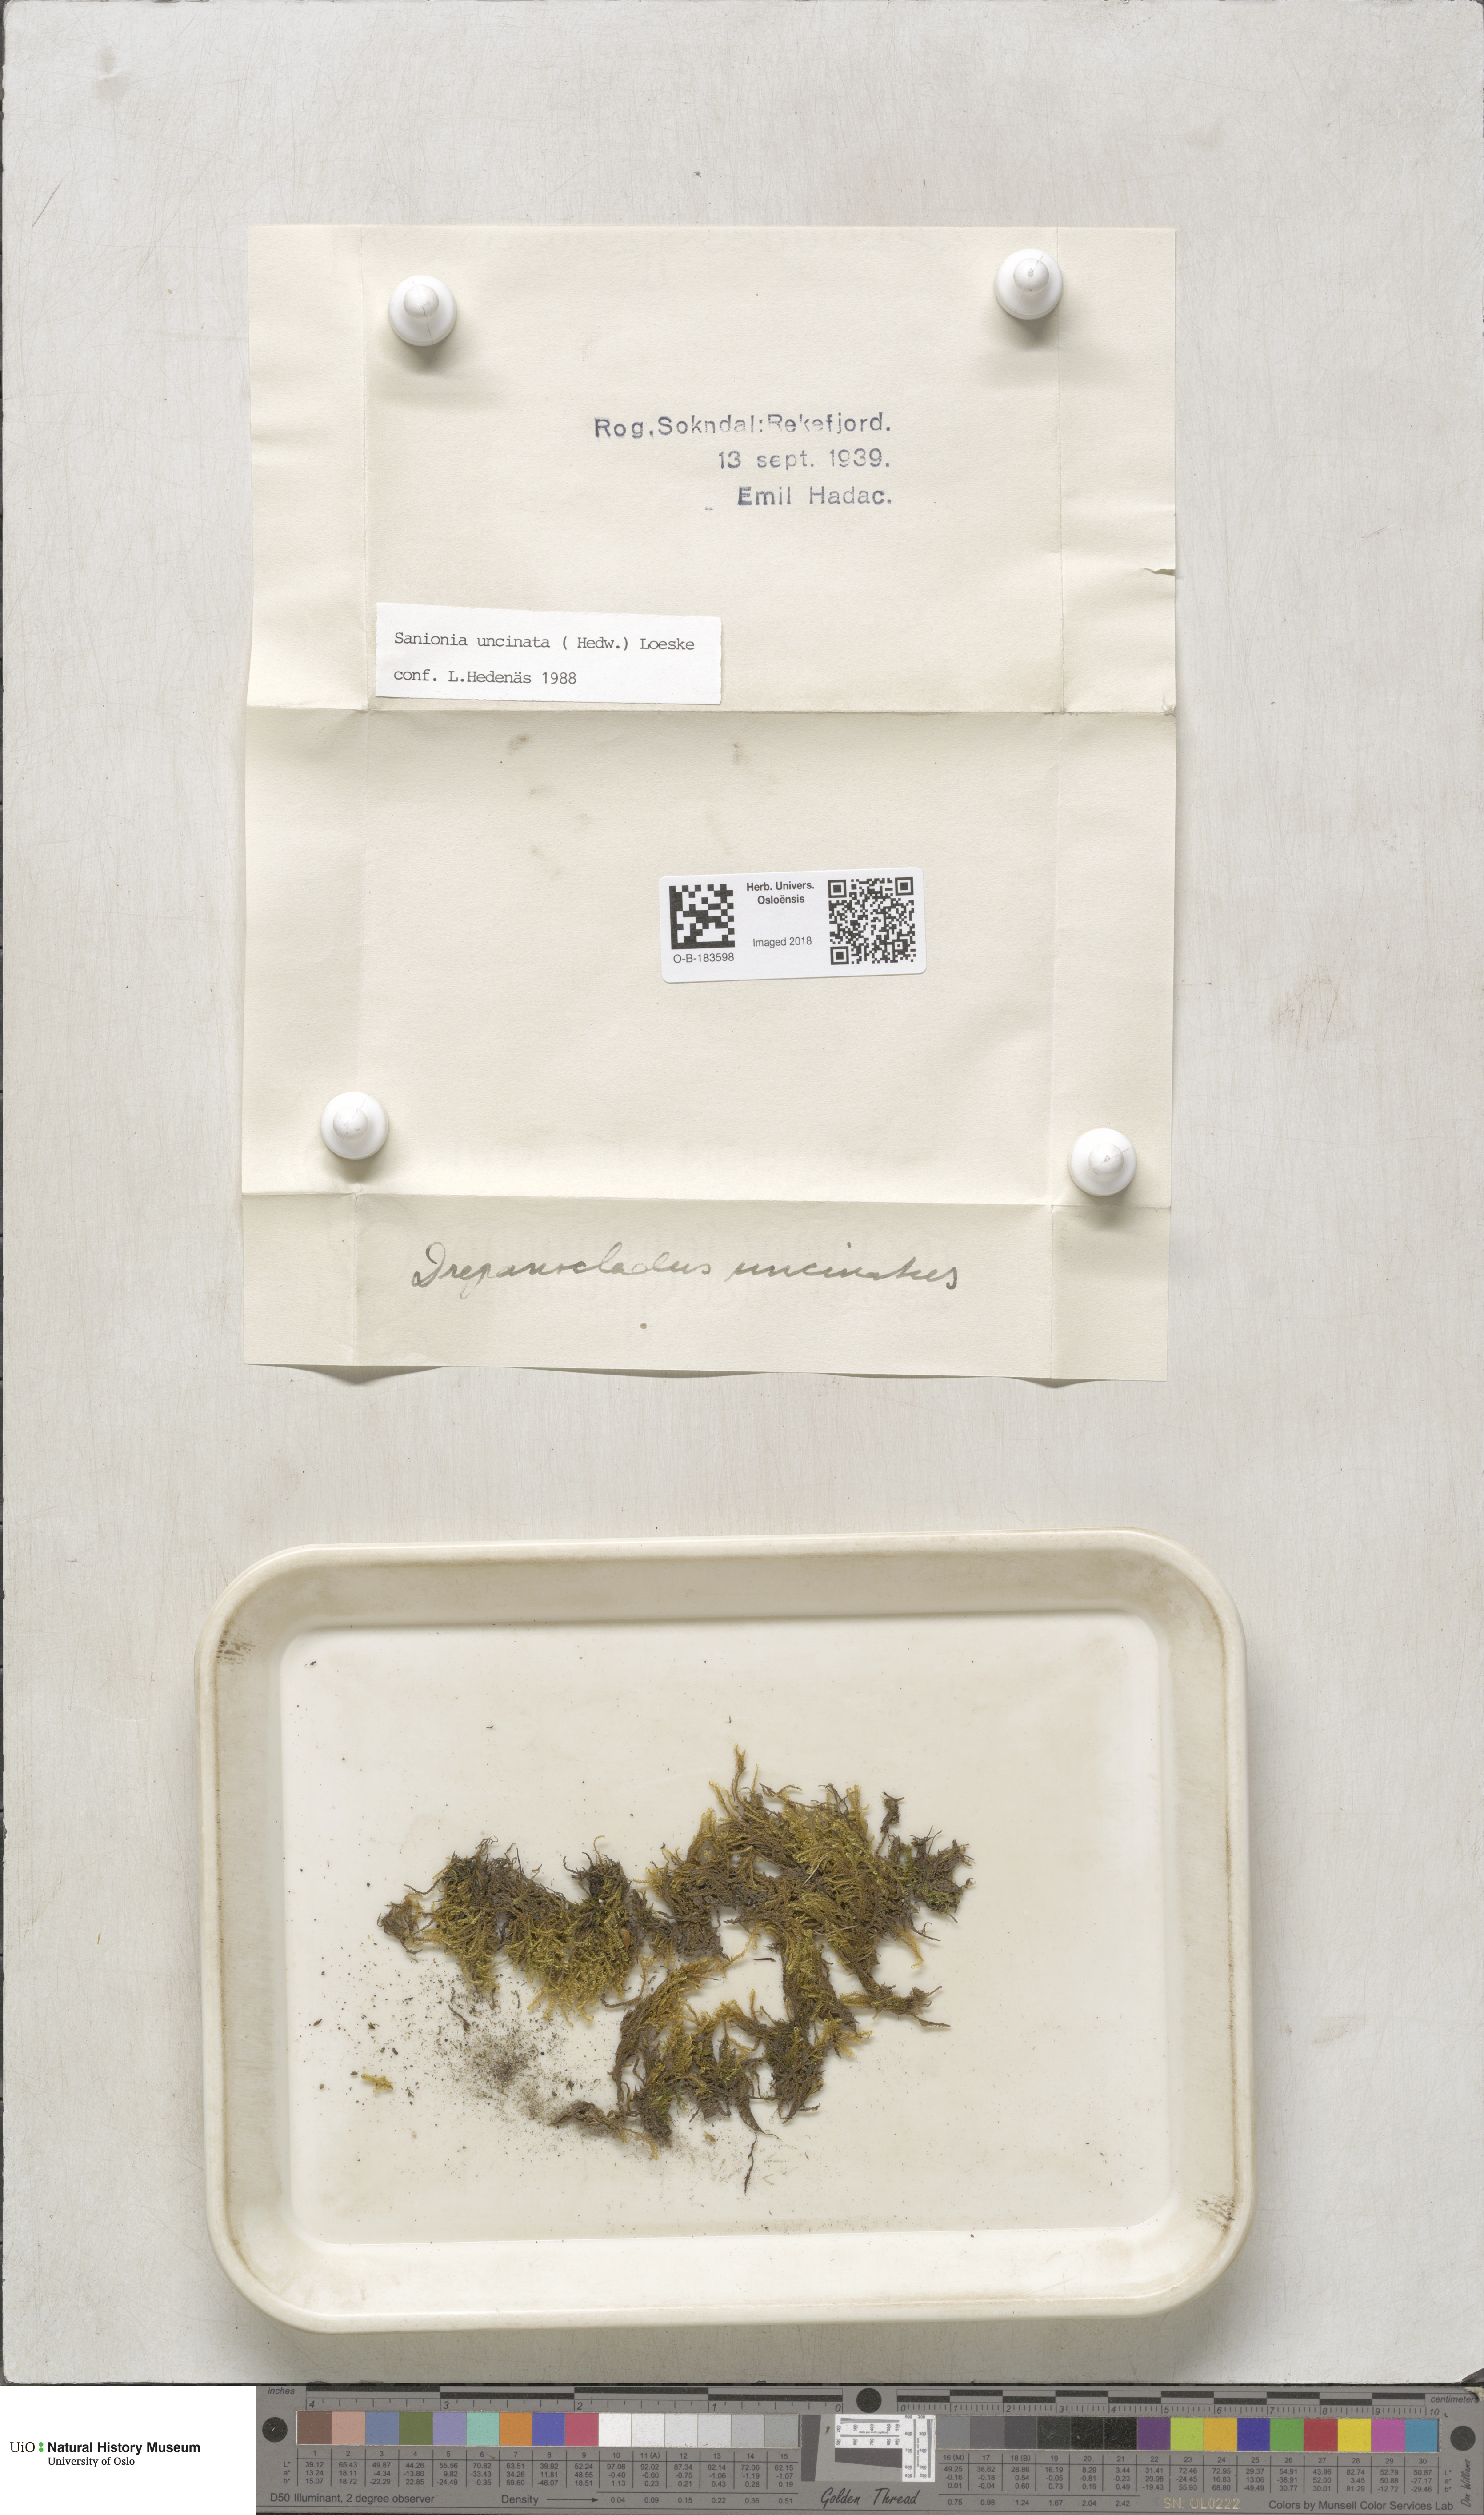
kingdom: Plantae
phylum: Bryophyta
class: Bryopsida
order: Hypnales
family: Scorpidiaceae
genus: Sanionia
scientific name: Sanionia uncinata
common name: Sickle moss
